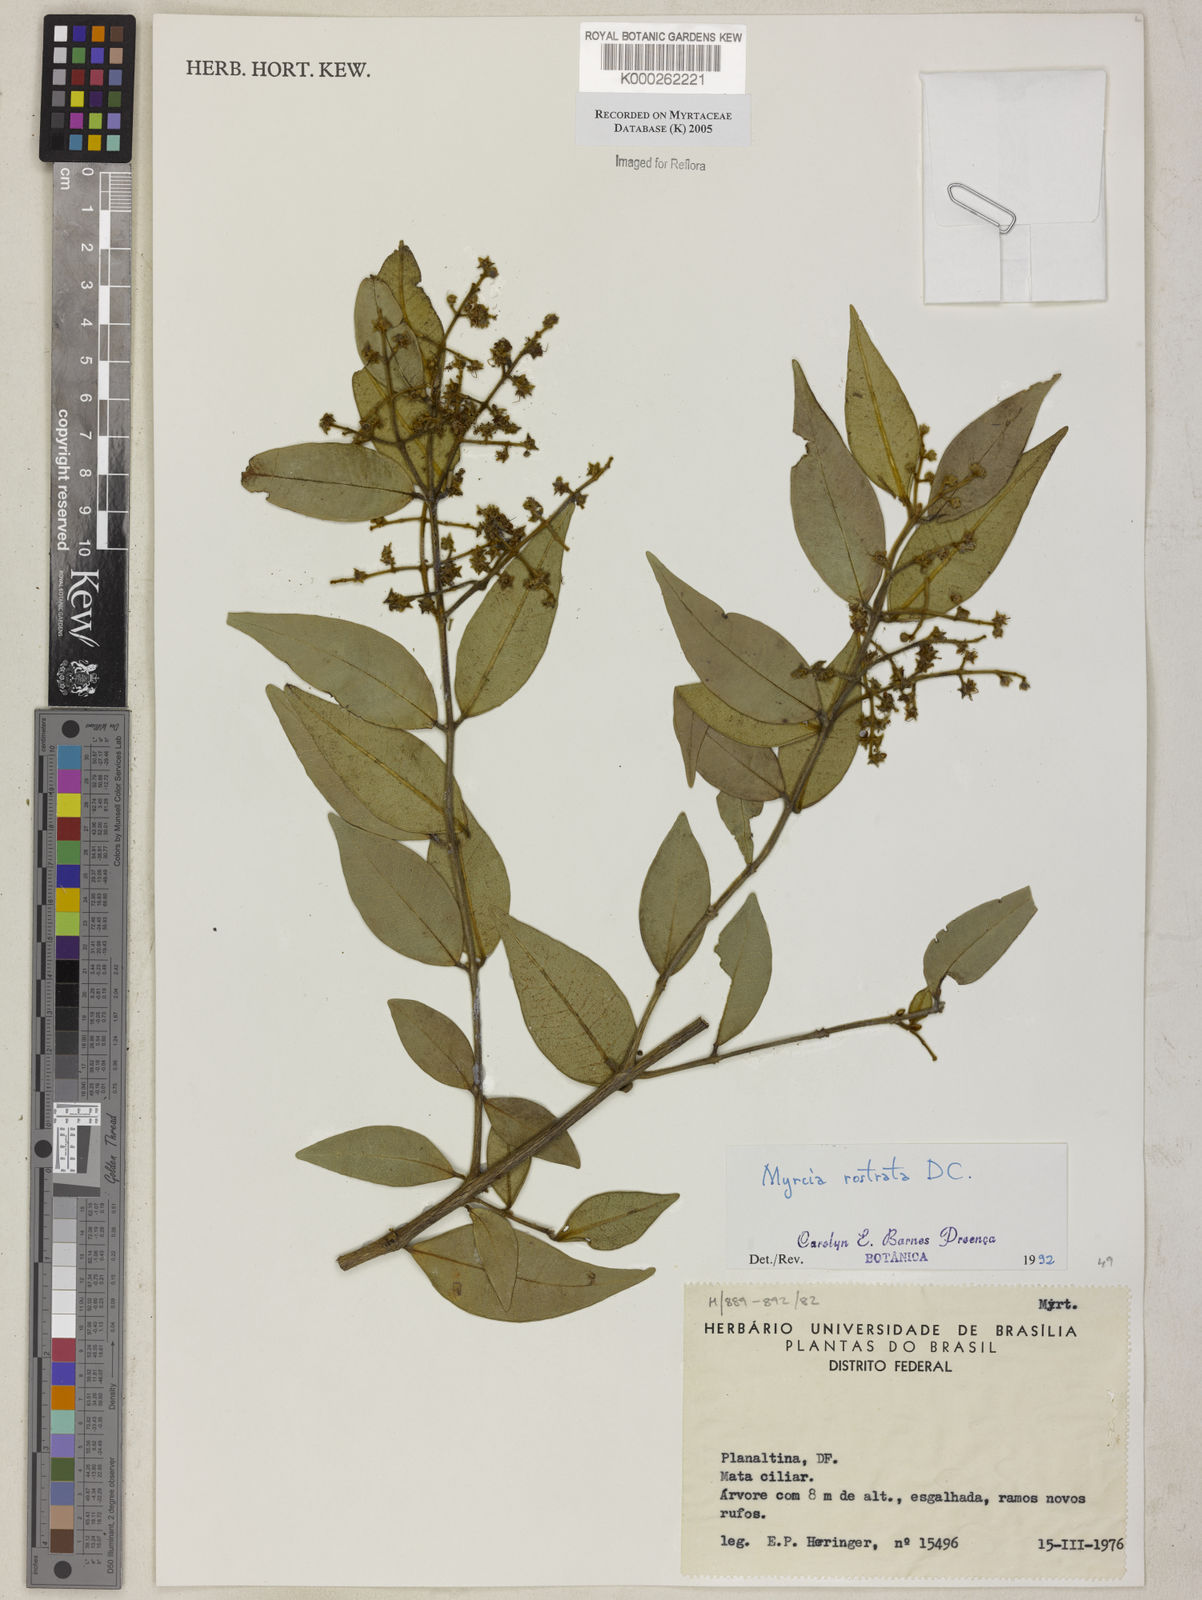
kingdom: Plantae
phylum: Tracheophyta
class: Magnoliopsida
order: Myrtales
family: Myrtaceae
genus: Myrcia
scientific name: Myrcia splendens
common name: Surinam cherry
